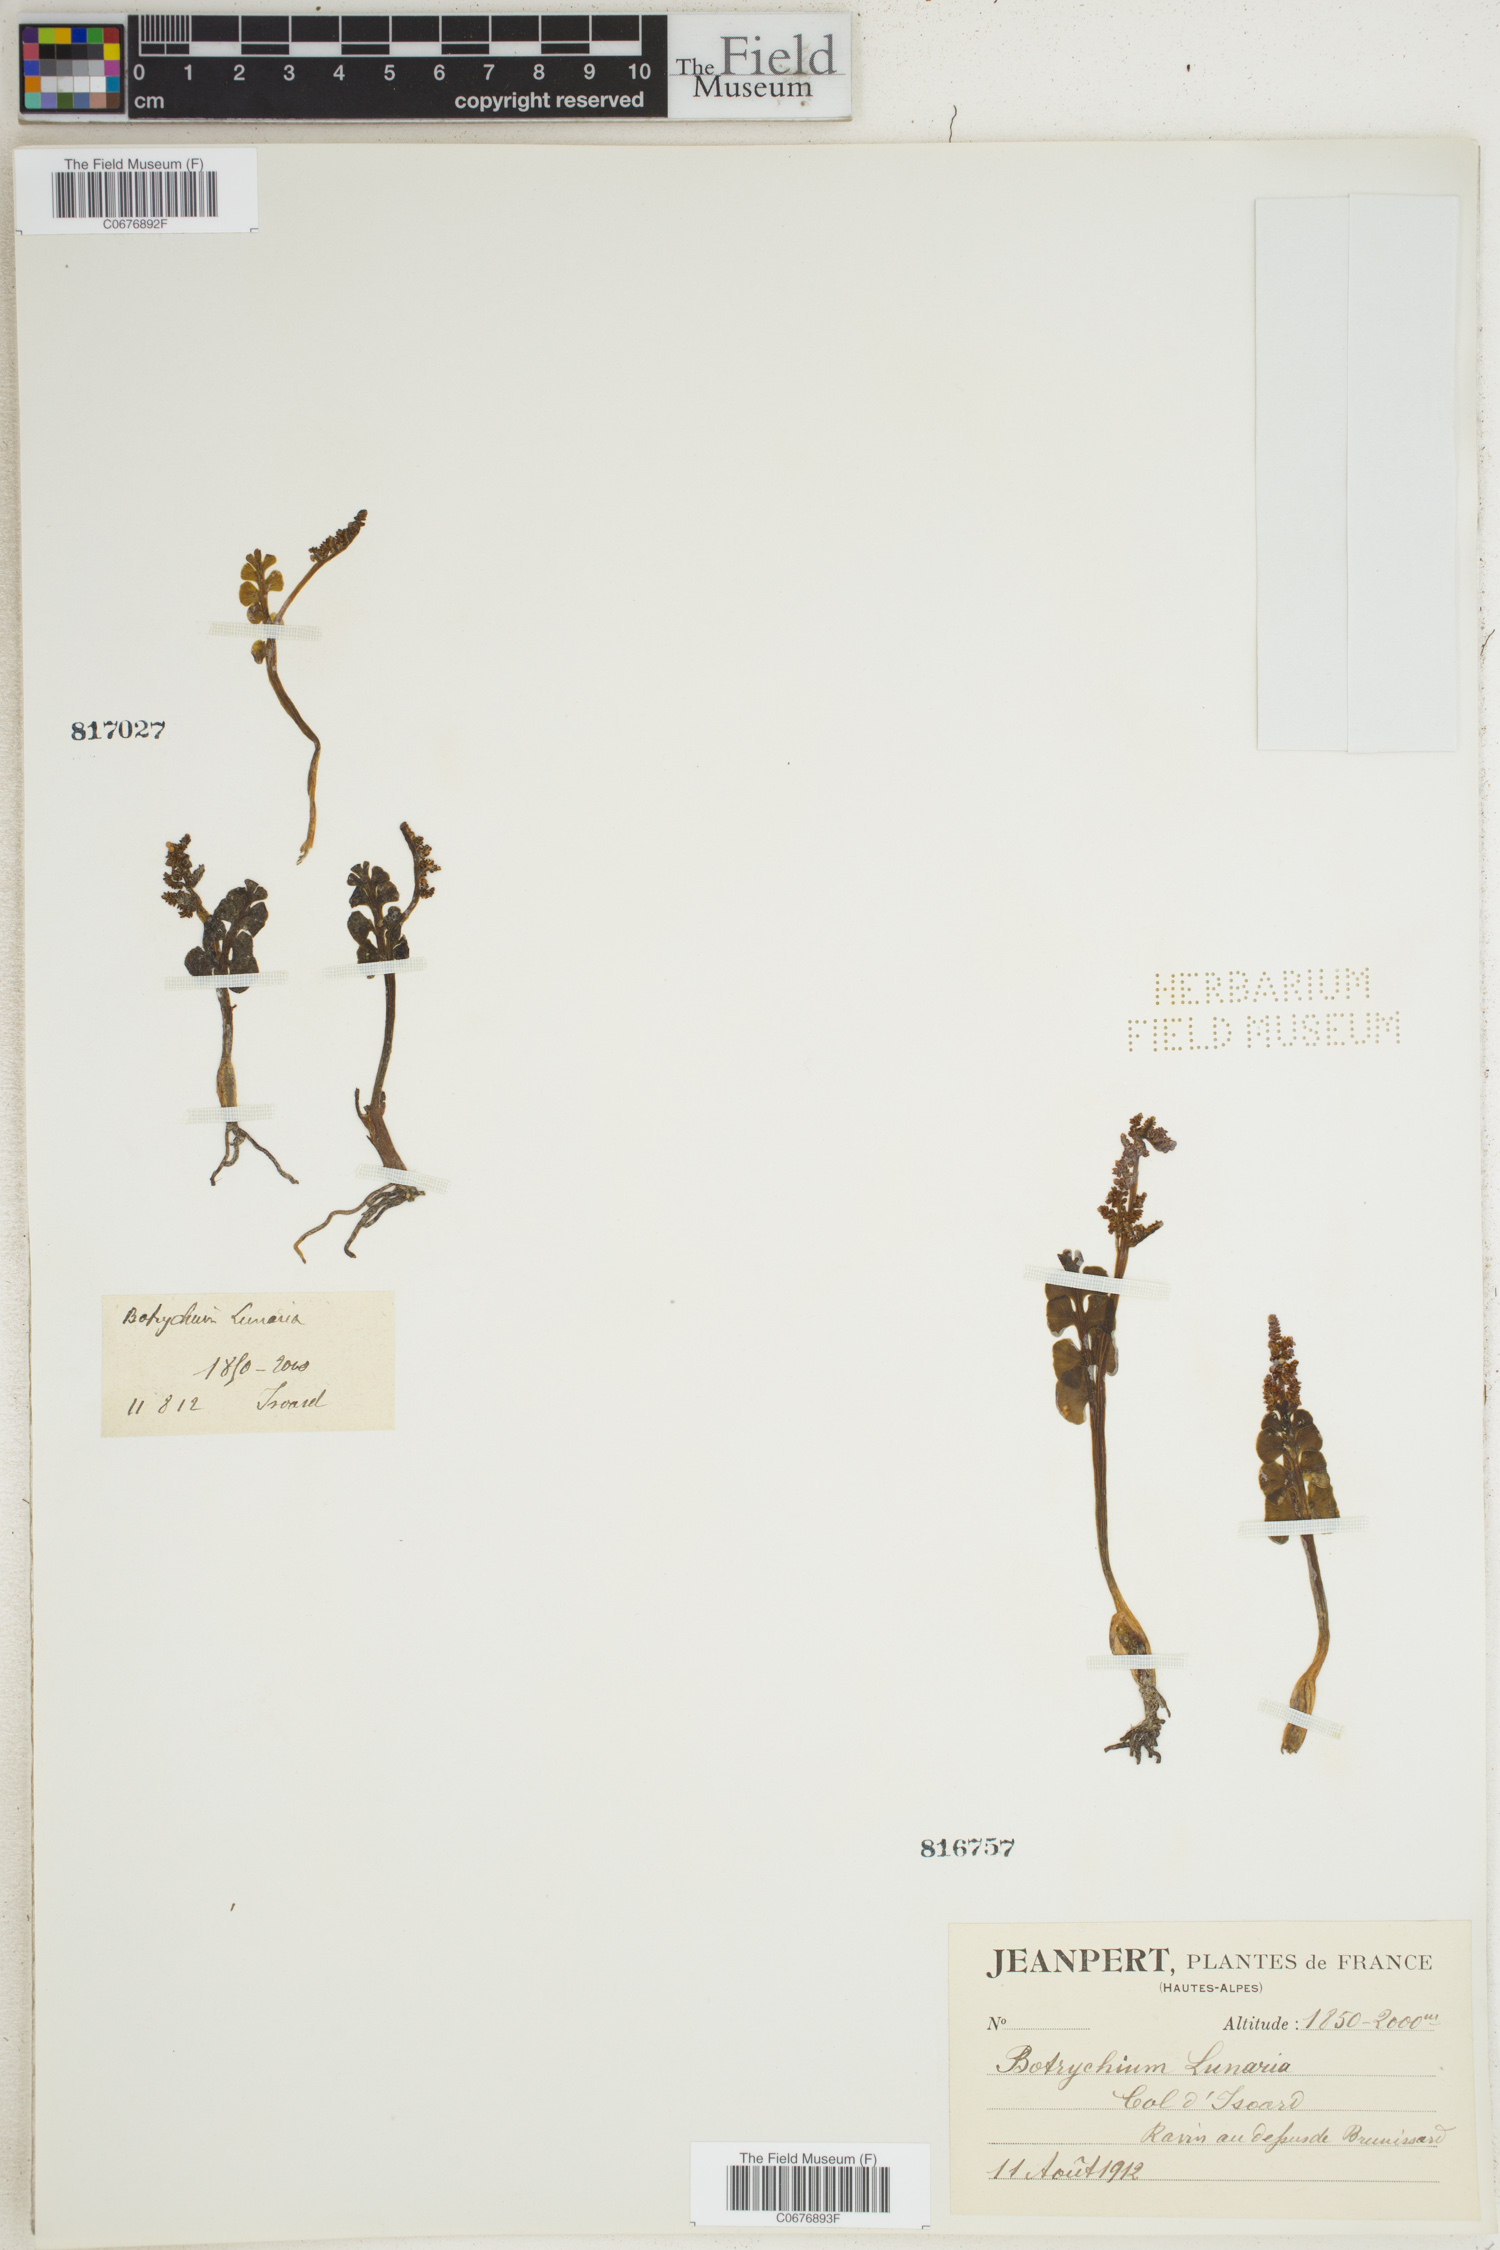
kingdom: Plantae
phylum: Tracheophyta
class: Polypodiopsida
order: Ophioglossales
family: Ophioglossaceae
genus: Botrychium
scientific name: Botrychium lunaria
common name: Moonwort
